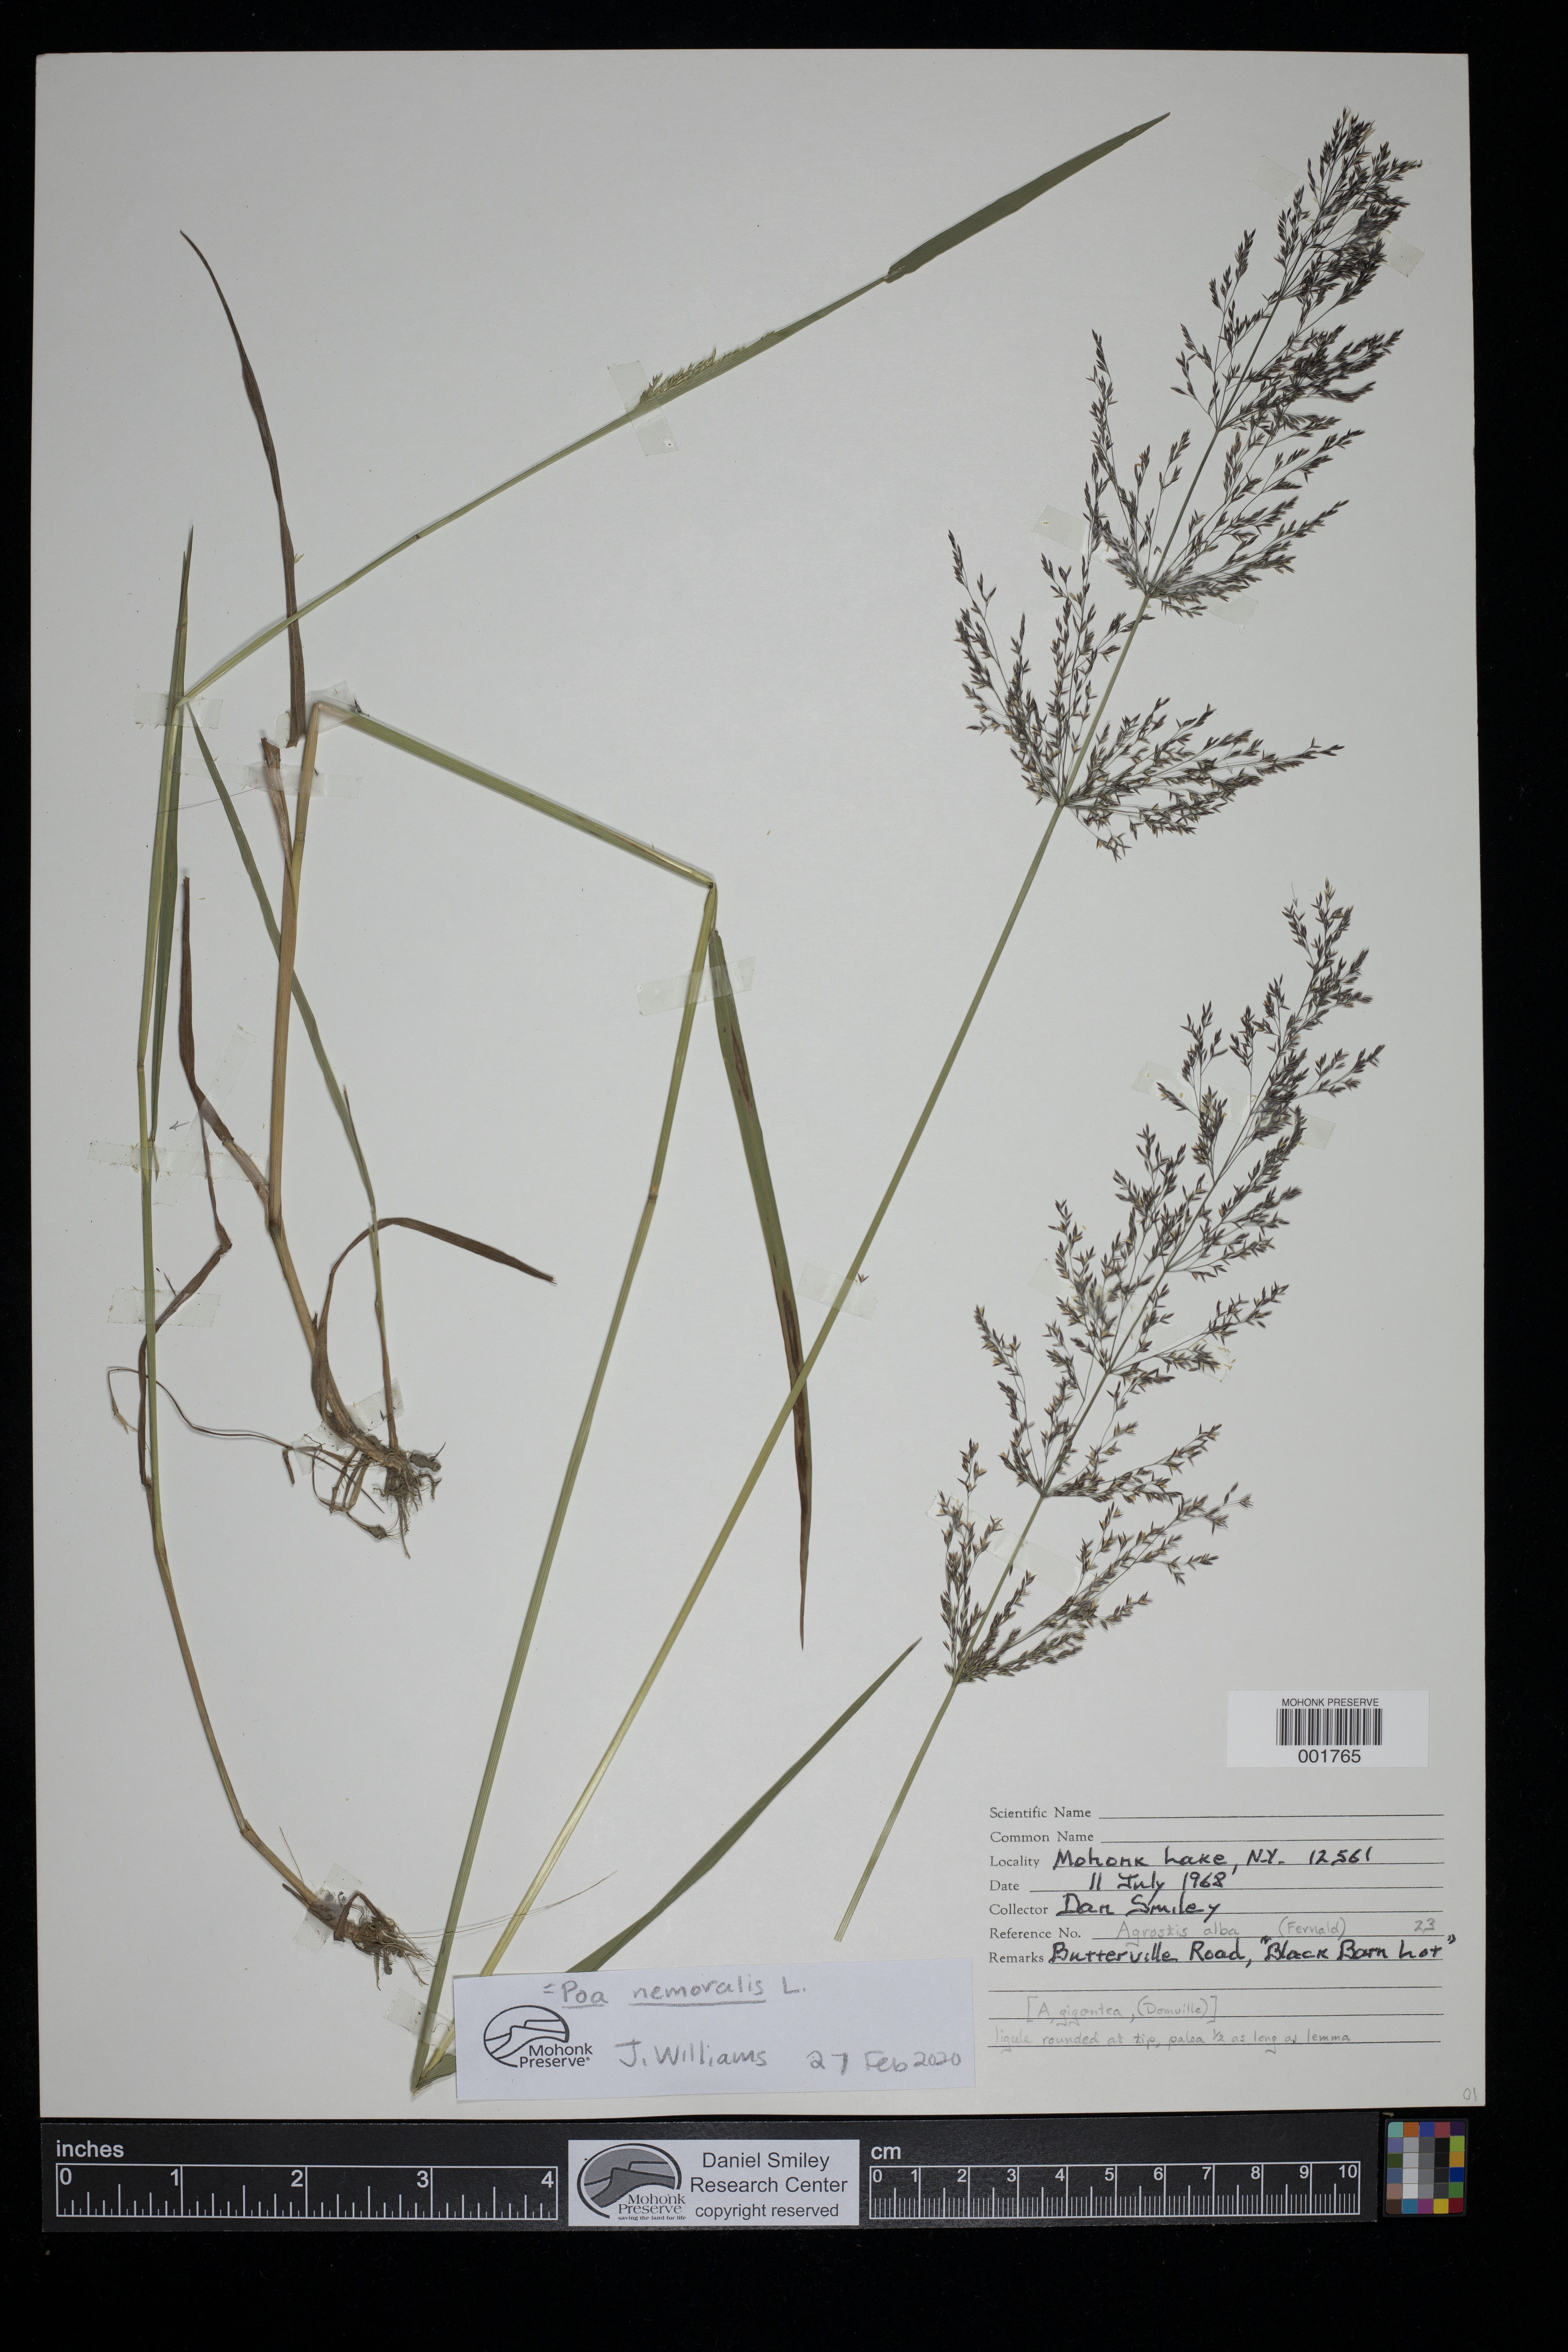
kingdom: Plantae
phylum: Tracheophyta
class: Liliopsida
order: Poales
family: Poaceae
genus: Poa
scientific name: Poa nemoralis
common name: Wood bluegrass
